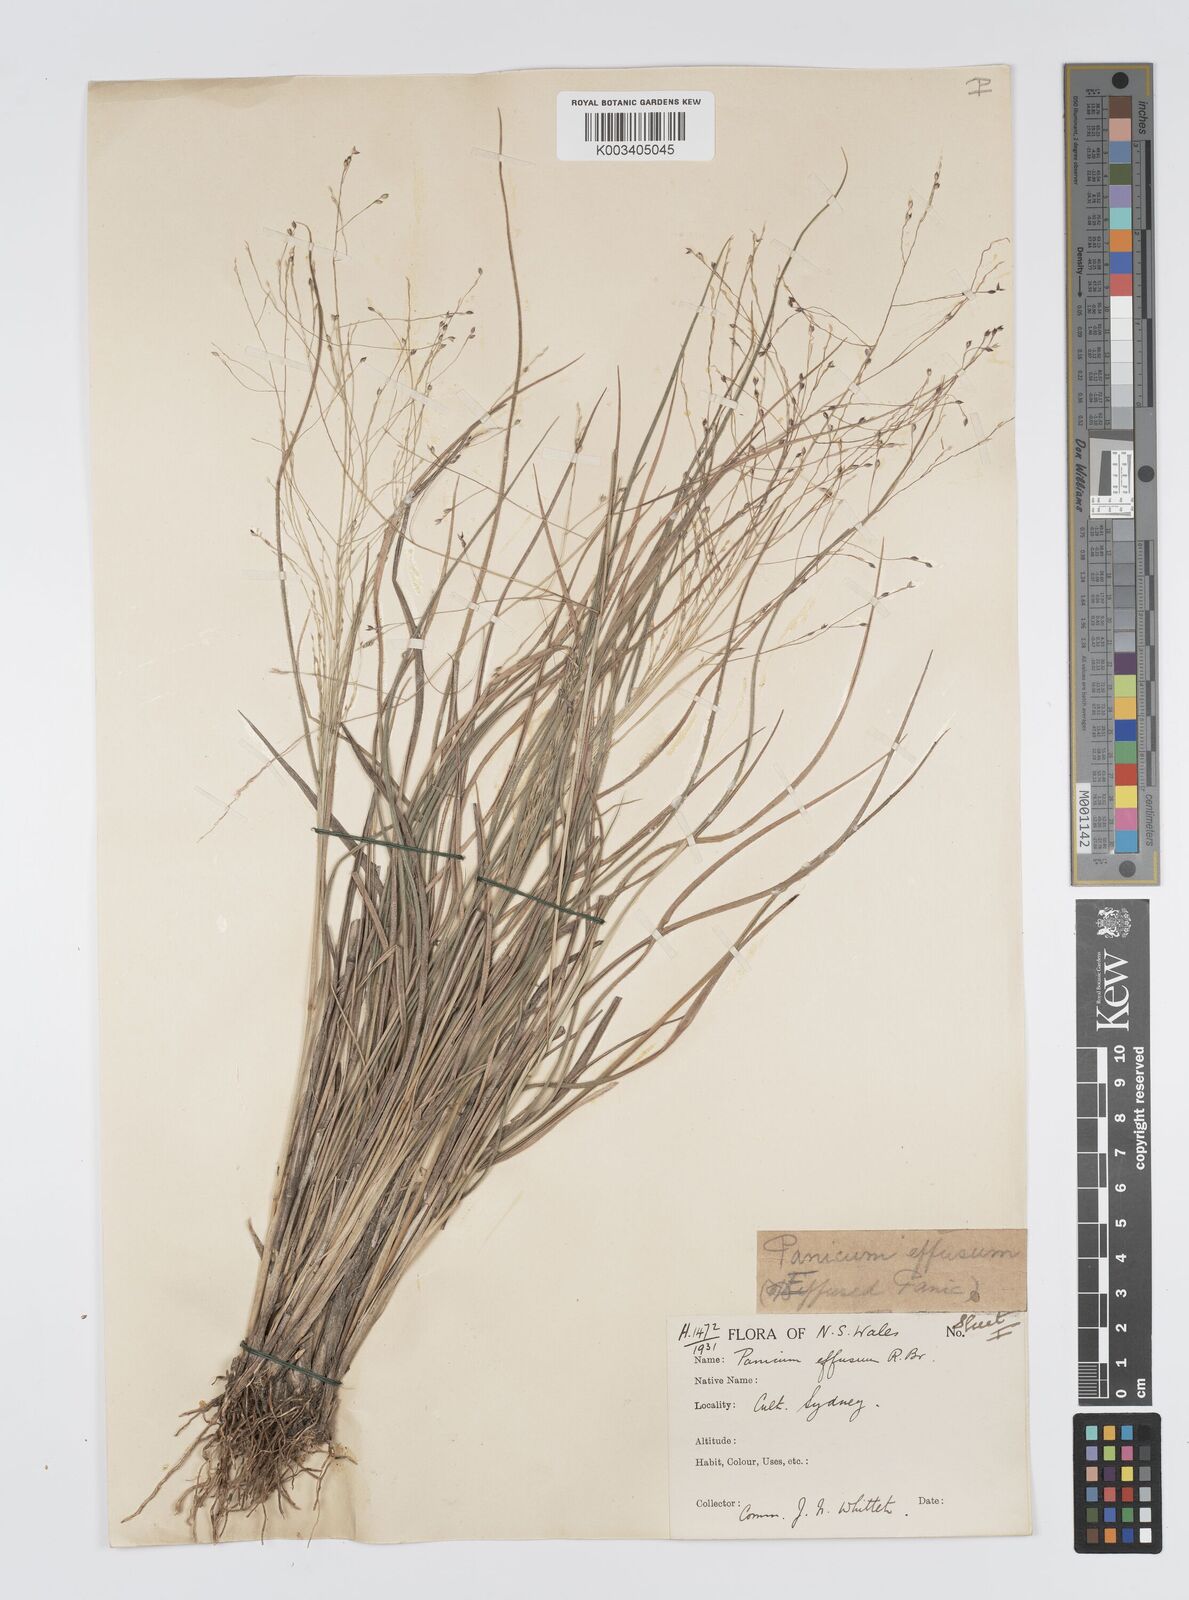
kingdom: Plantae
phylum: Tracheophyta
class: Liliopsida
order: Poales
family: Poaceae
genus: Panicum
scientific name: Panicum effusum
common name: Hairy panic grass
